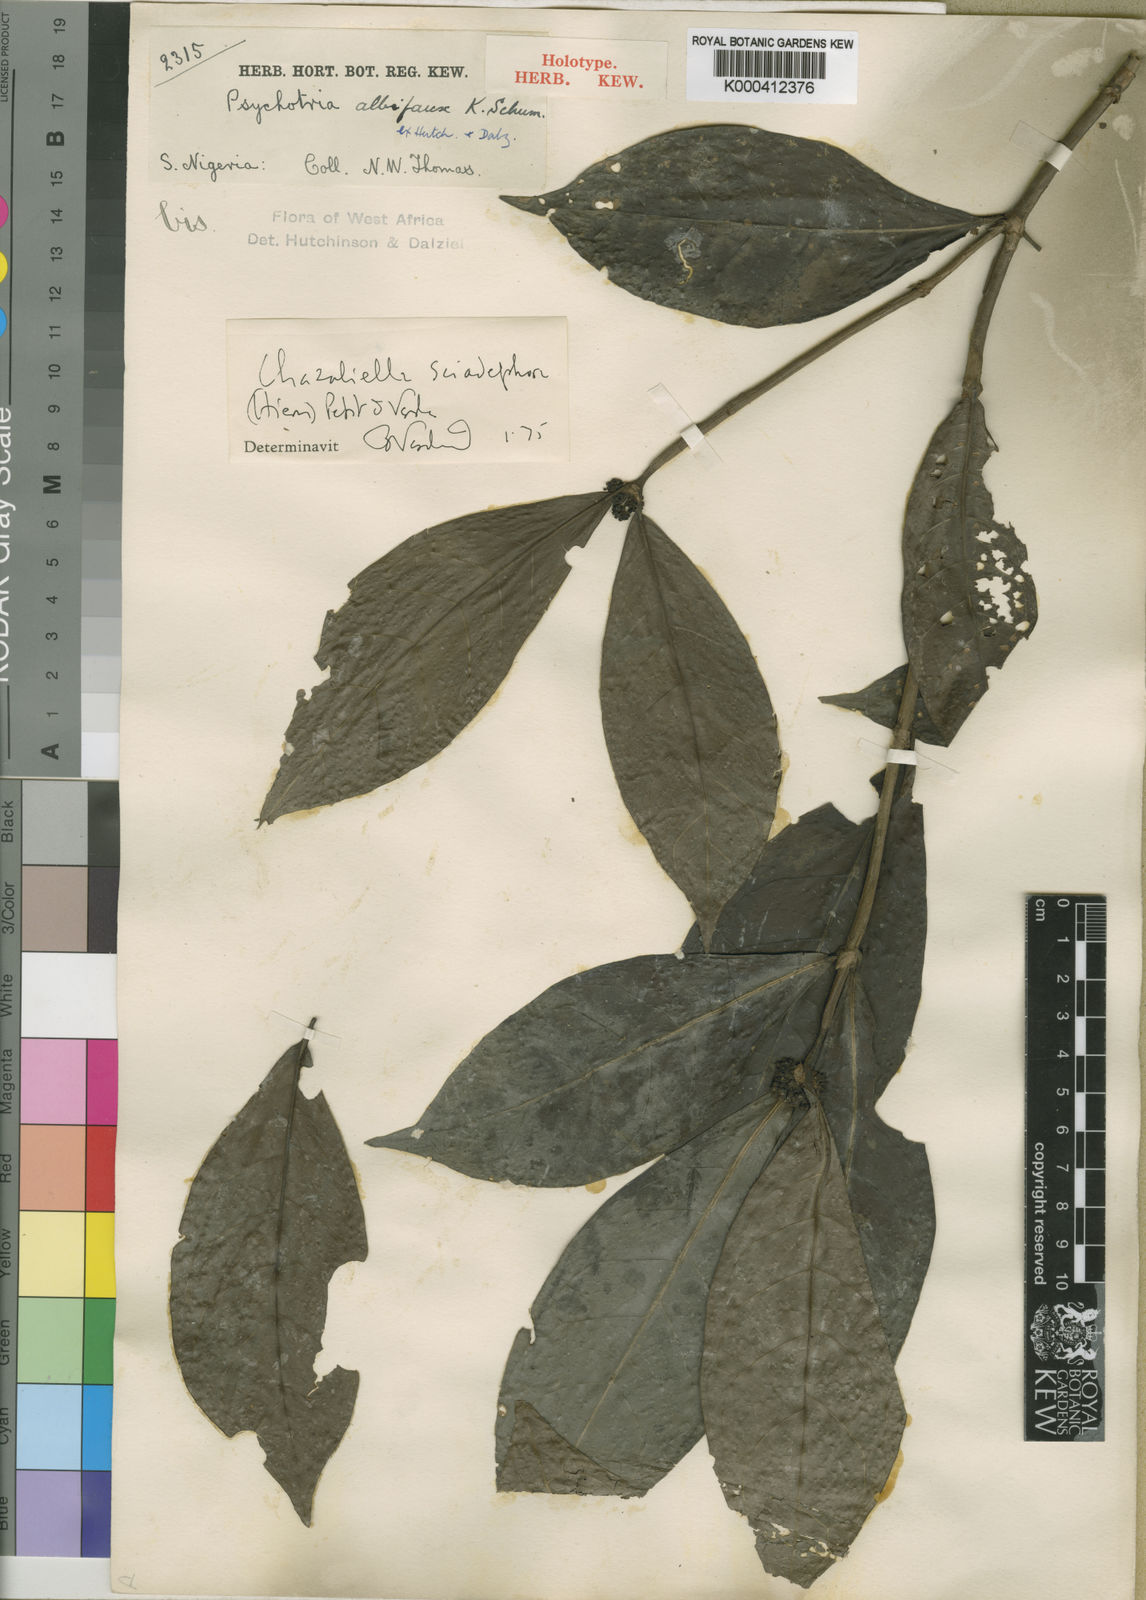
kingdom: Plantae
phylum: Tracheophyta
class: Magnoliopsida
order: Gentianales
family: Rubiaceae
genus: Eumachia
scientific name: Eumachia sciadephora
